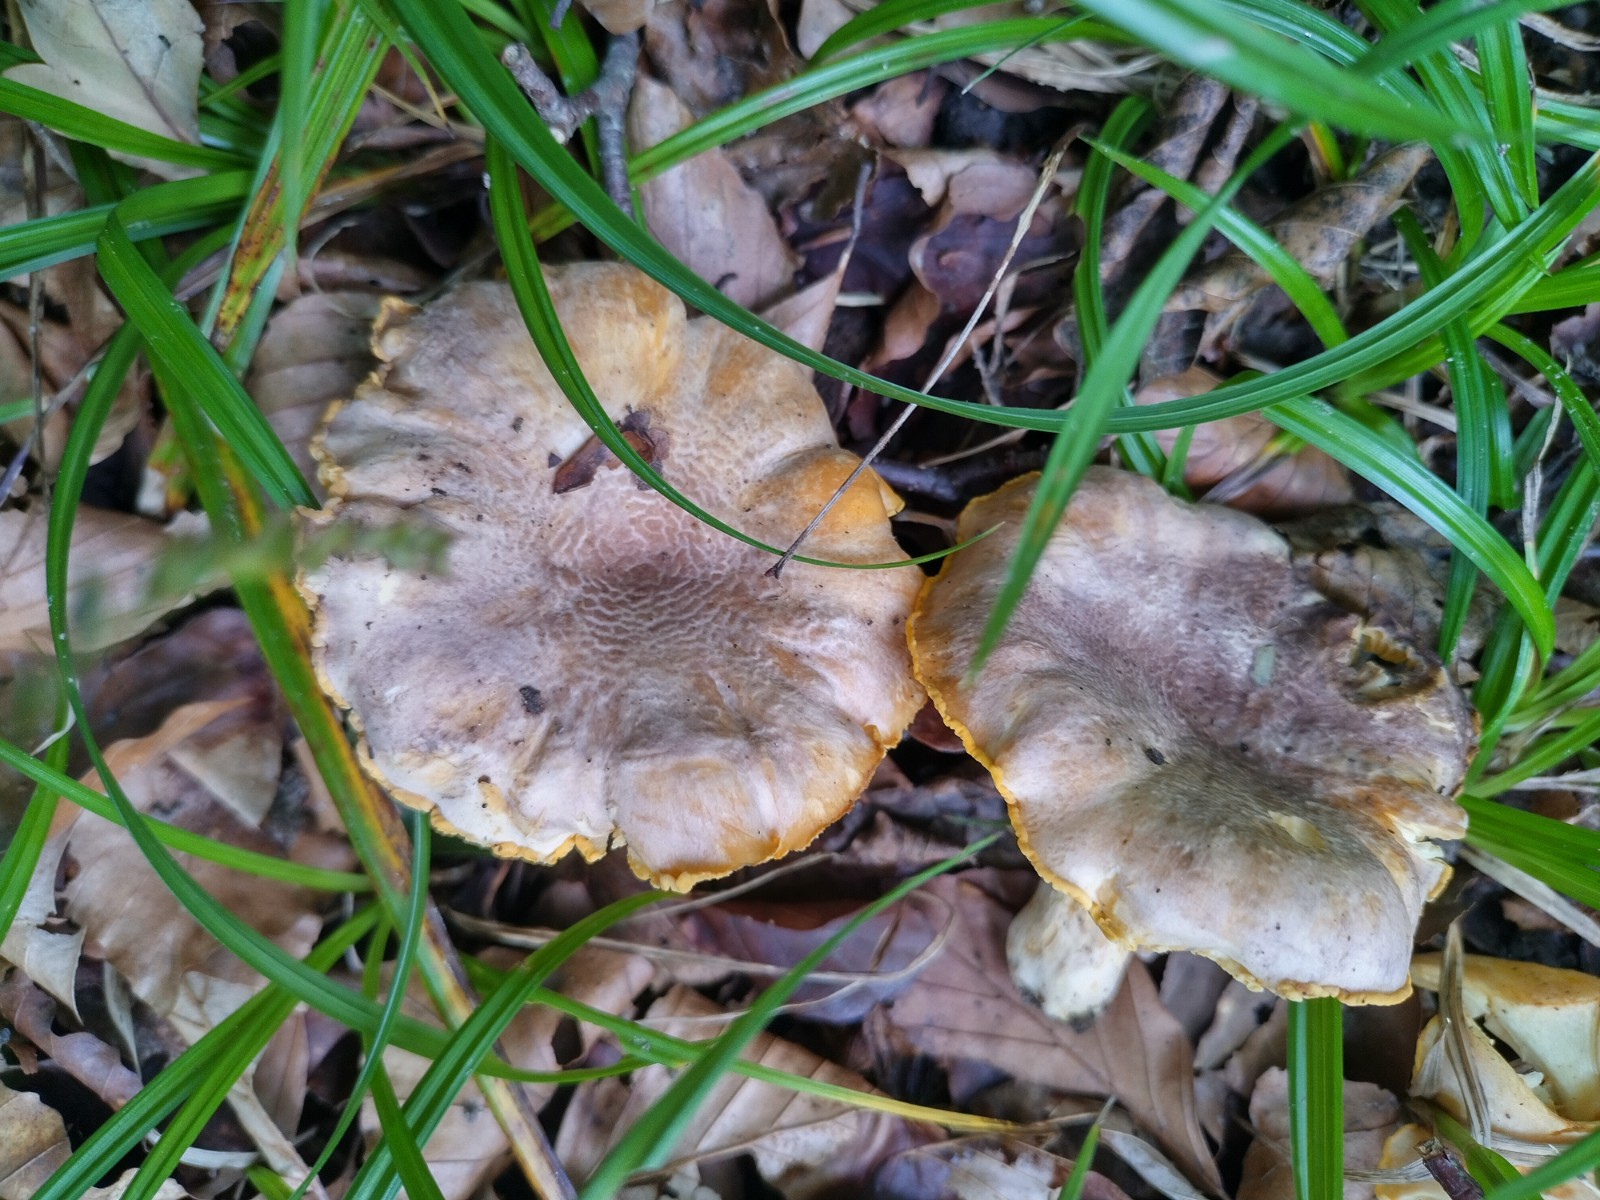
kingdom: Fungi
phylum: Basidiomycota
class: Agaricomycetes
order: Cantharellales
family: Hydnaceae
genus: Cantharellus
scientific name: Cantharellus amethysteus
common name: ametyst-kantarel
